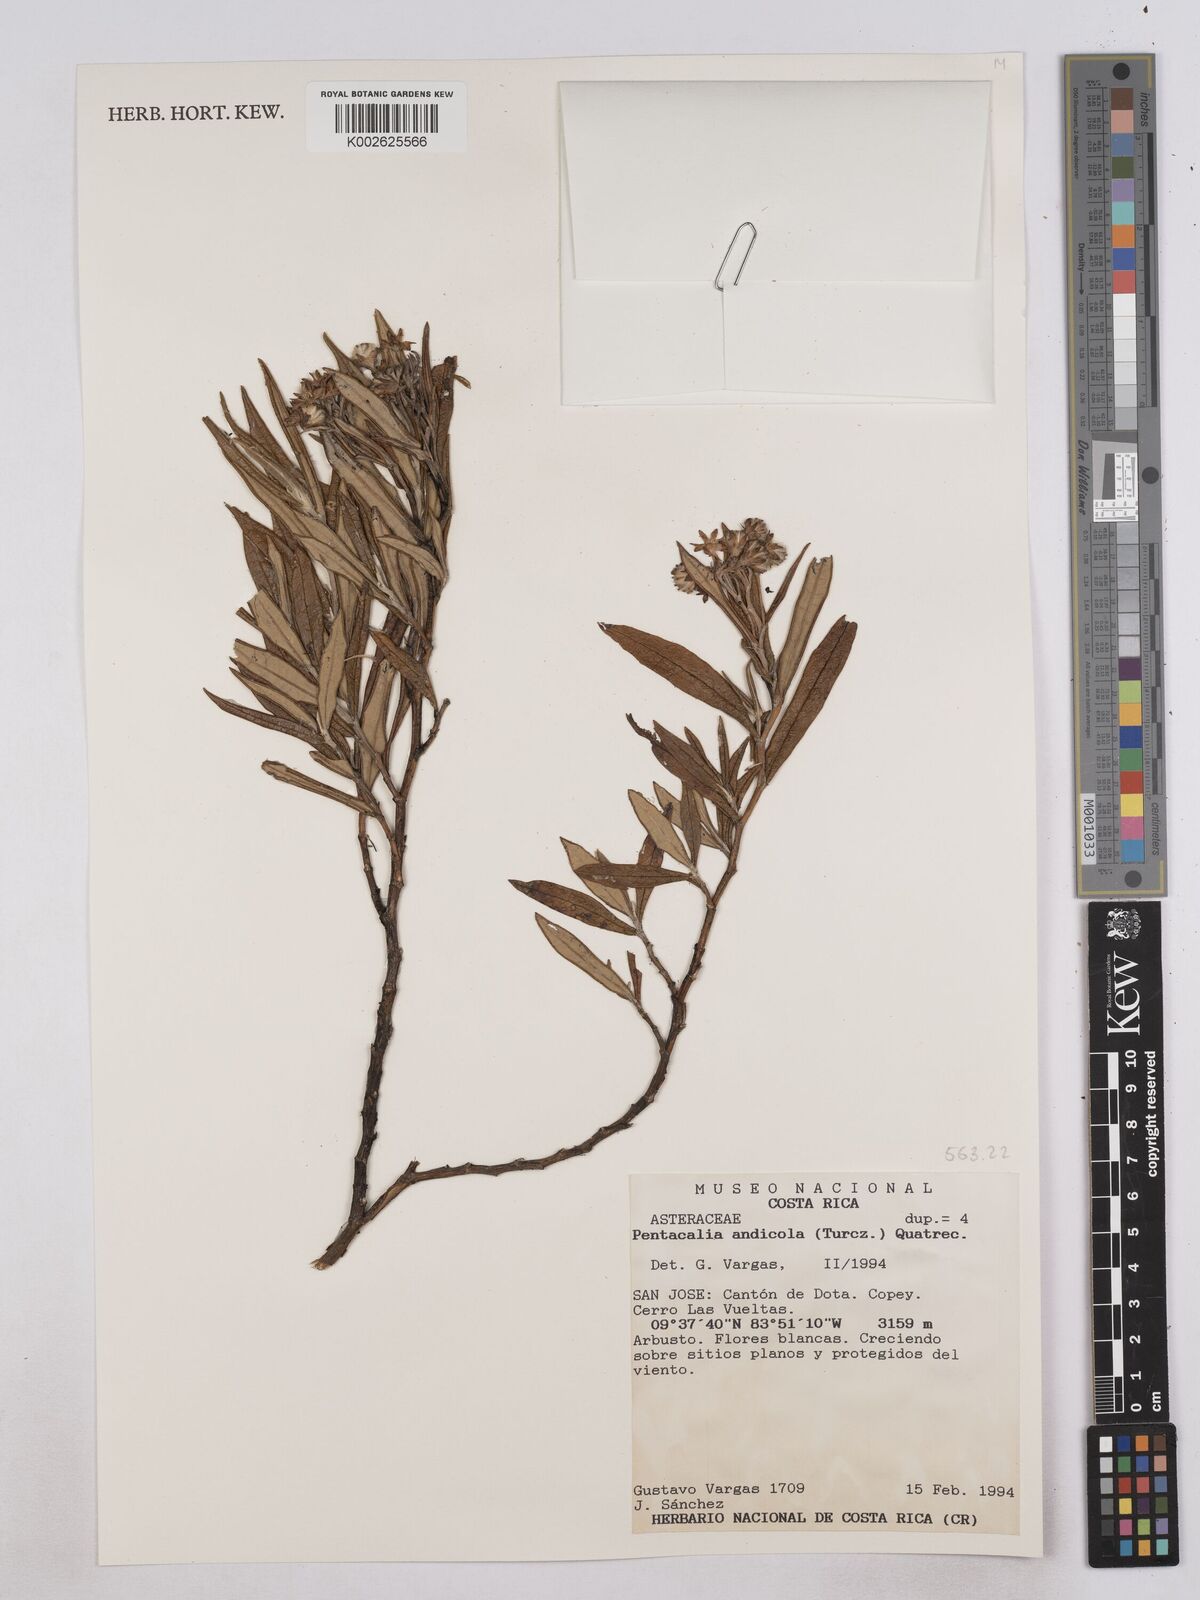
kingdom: Plantae
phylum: Tracheophyta
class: Magnoliopsida
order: Asterales
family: Asteraceae
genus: Monticalia
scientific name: Monticalia andicola
